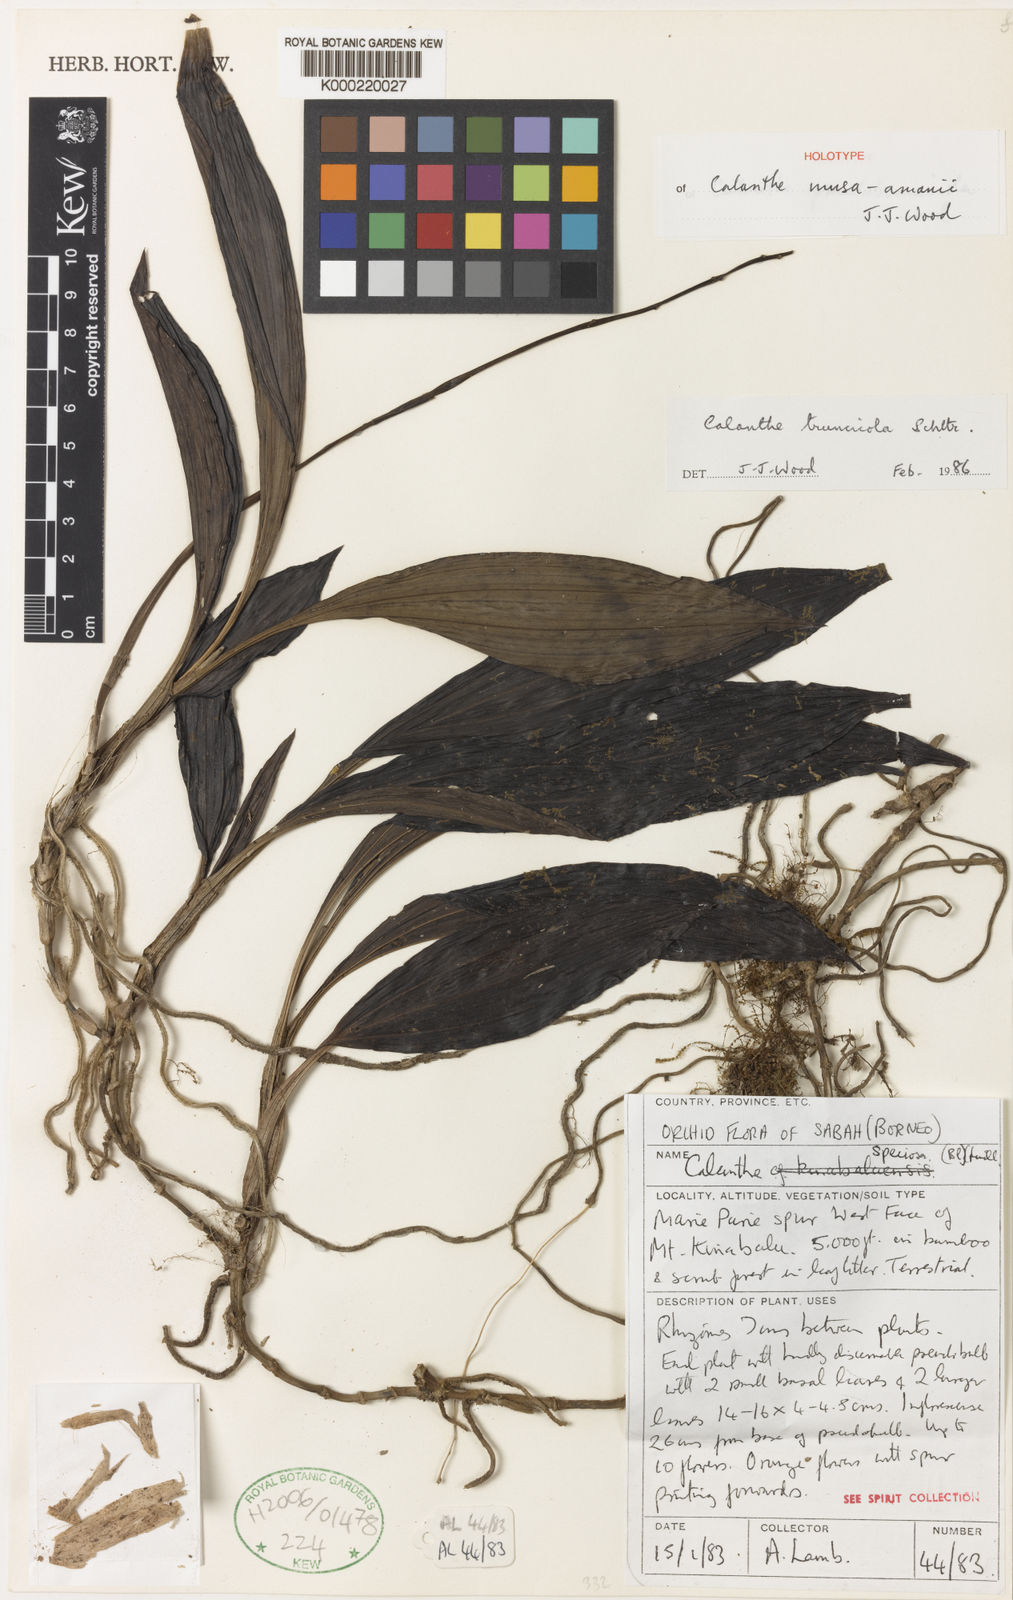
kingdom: Plantae
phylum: Tracheophyta
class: Liliopsida
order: Asparagales
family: Orchidaceae
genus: Calanthe
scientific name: Calanthe musa-amanii
